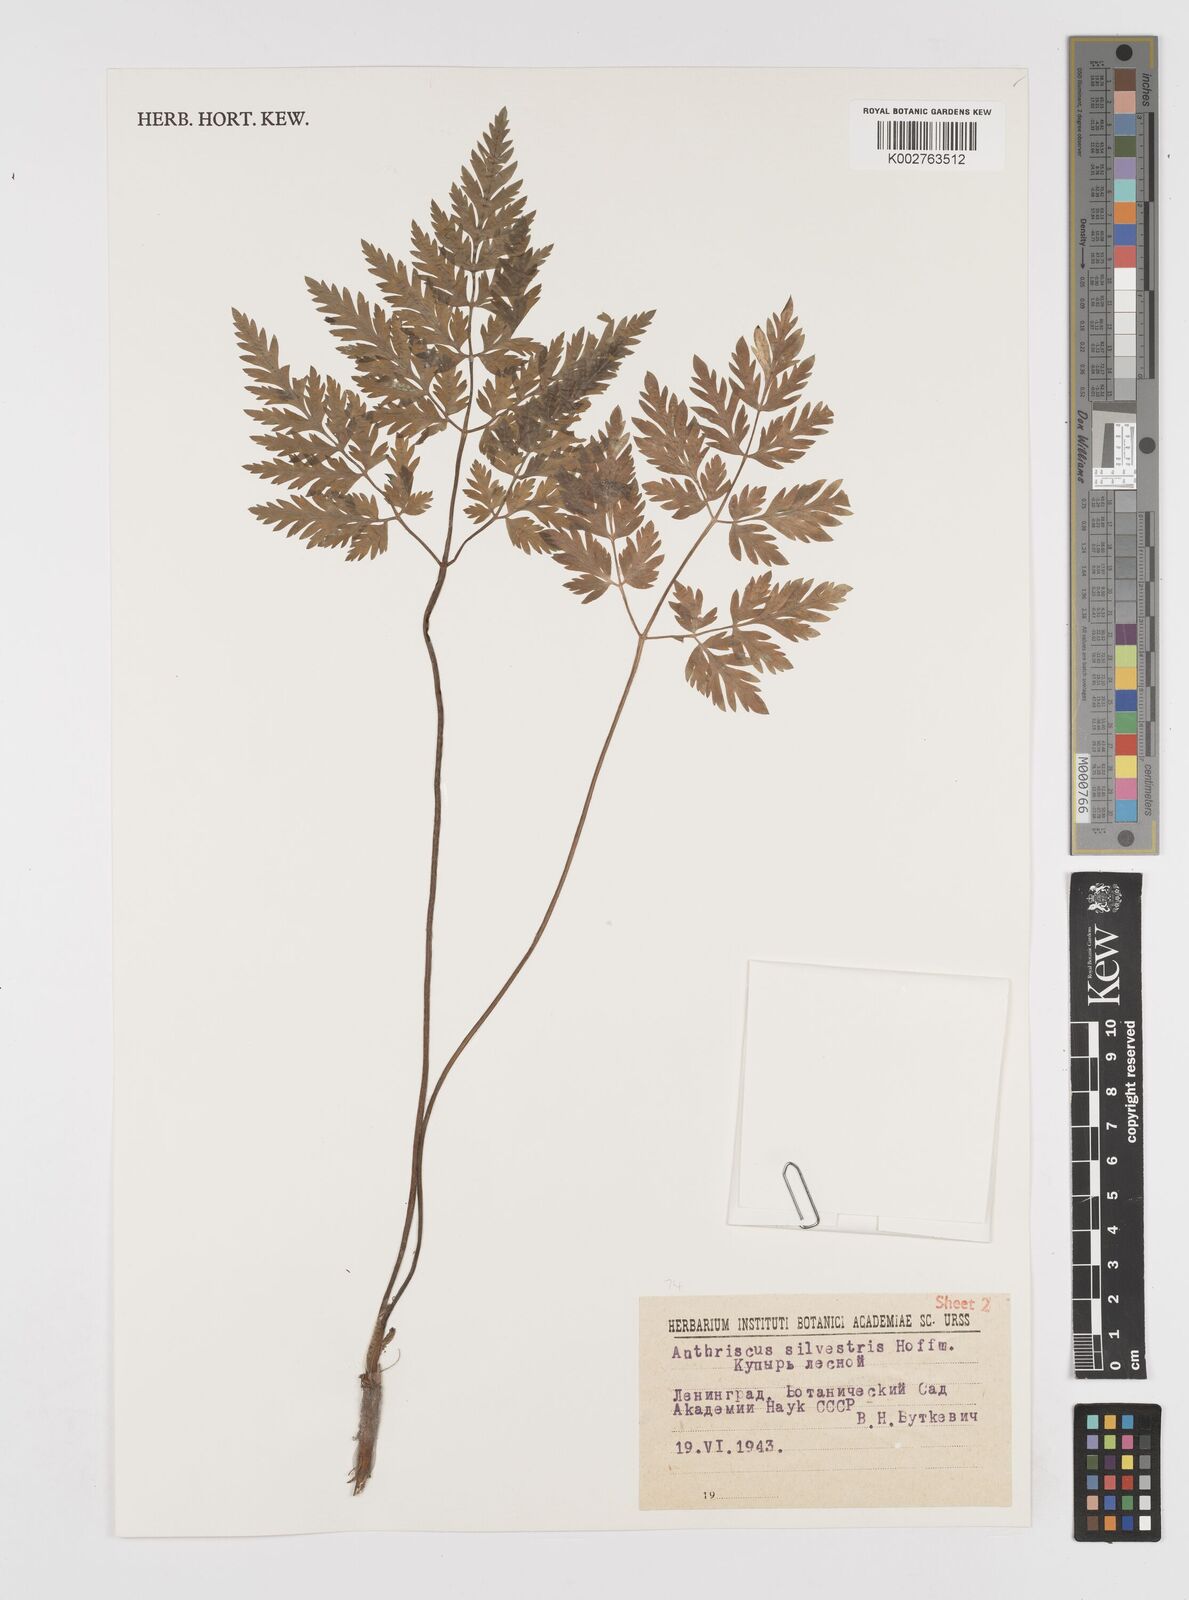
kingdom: Plantae
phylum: Tracheophyta
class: Magnoliopsida
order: Apiales
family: Apiaceae
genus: Anthriscus
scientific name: Anthriscus sylvestris
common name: Cow parsley
